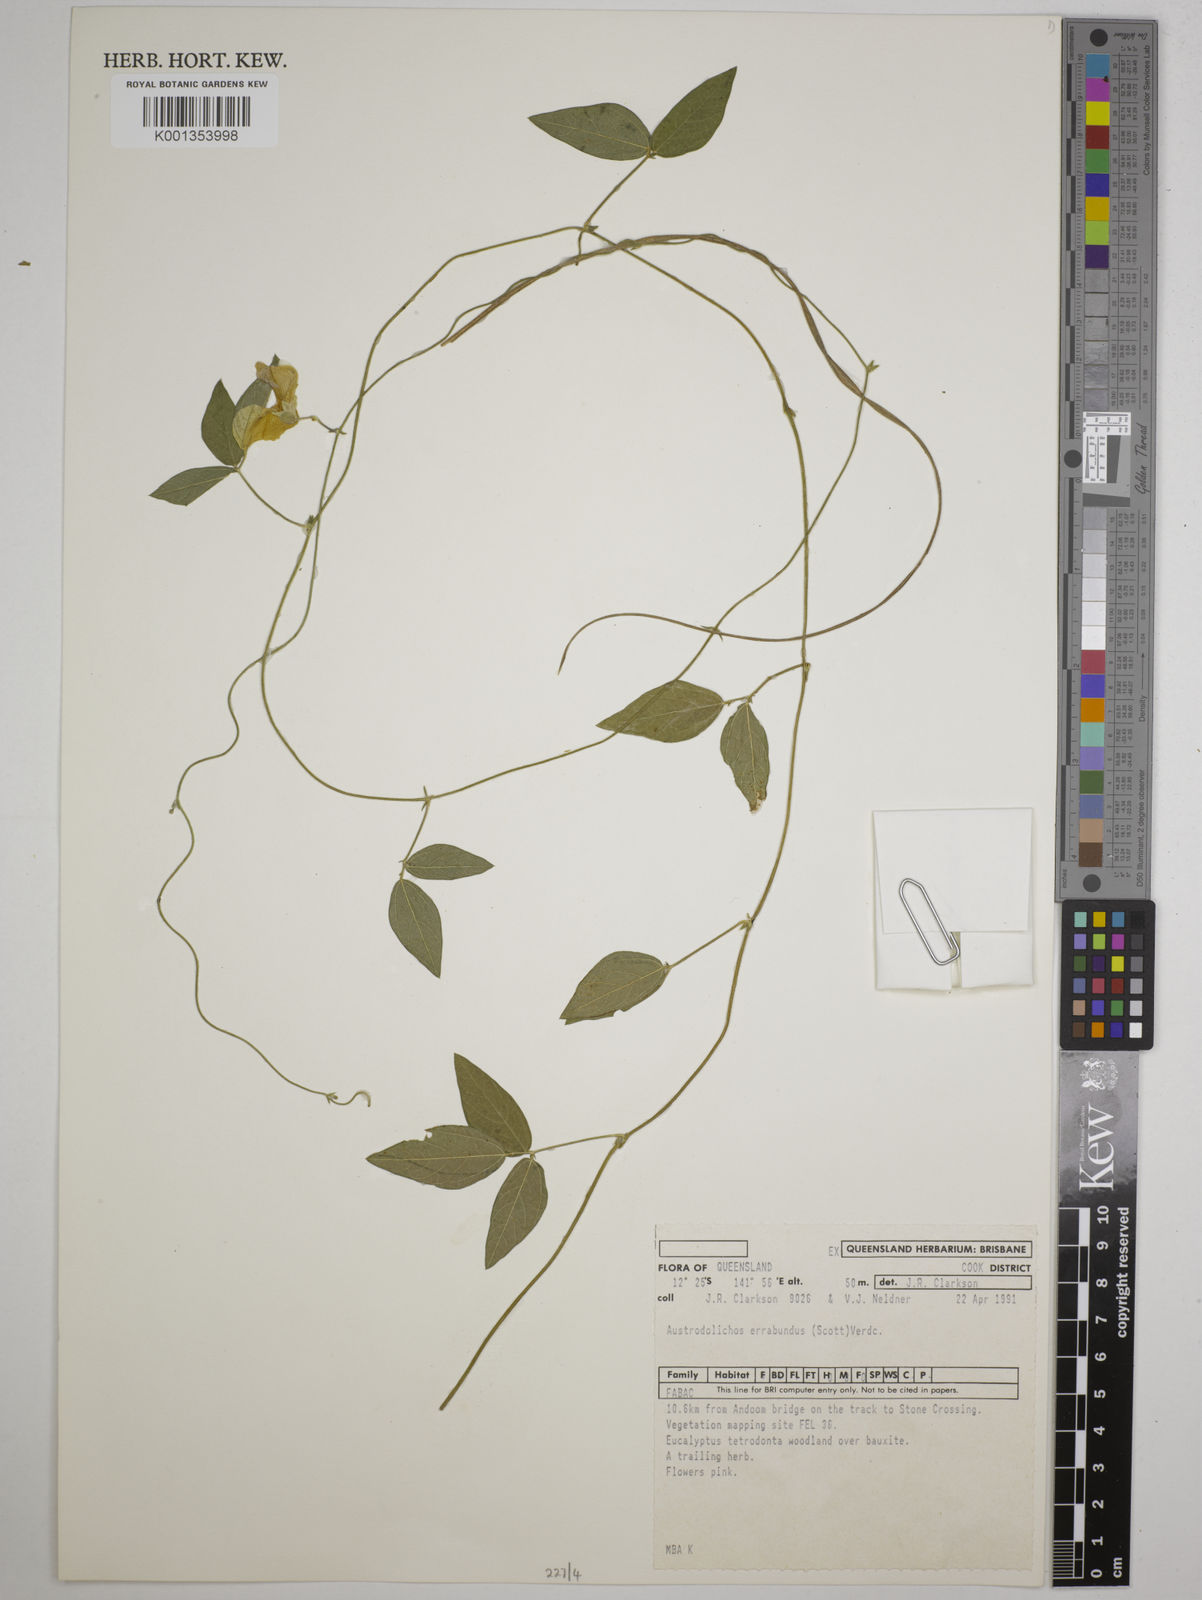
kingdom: Plantae
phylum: Tracheophyta
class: Magnoliopsida
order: Fabales
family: Fabaceae
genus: Austrodolichos
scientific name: Austrodolichos errabundus
